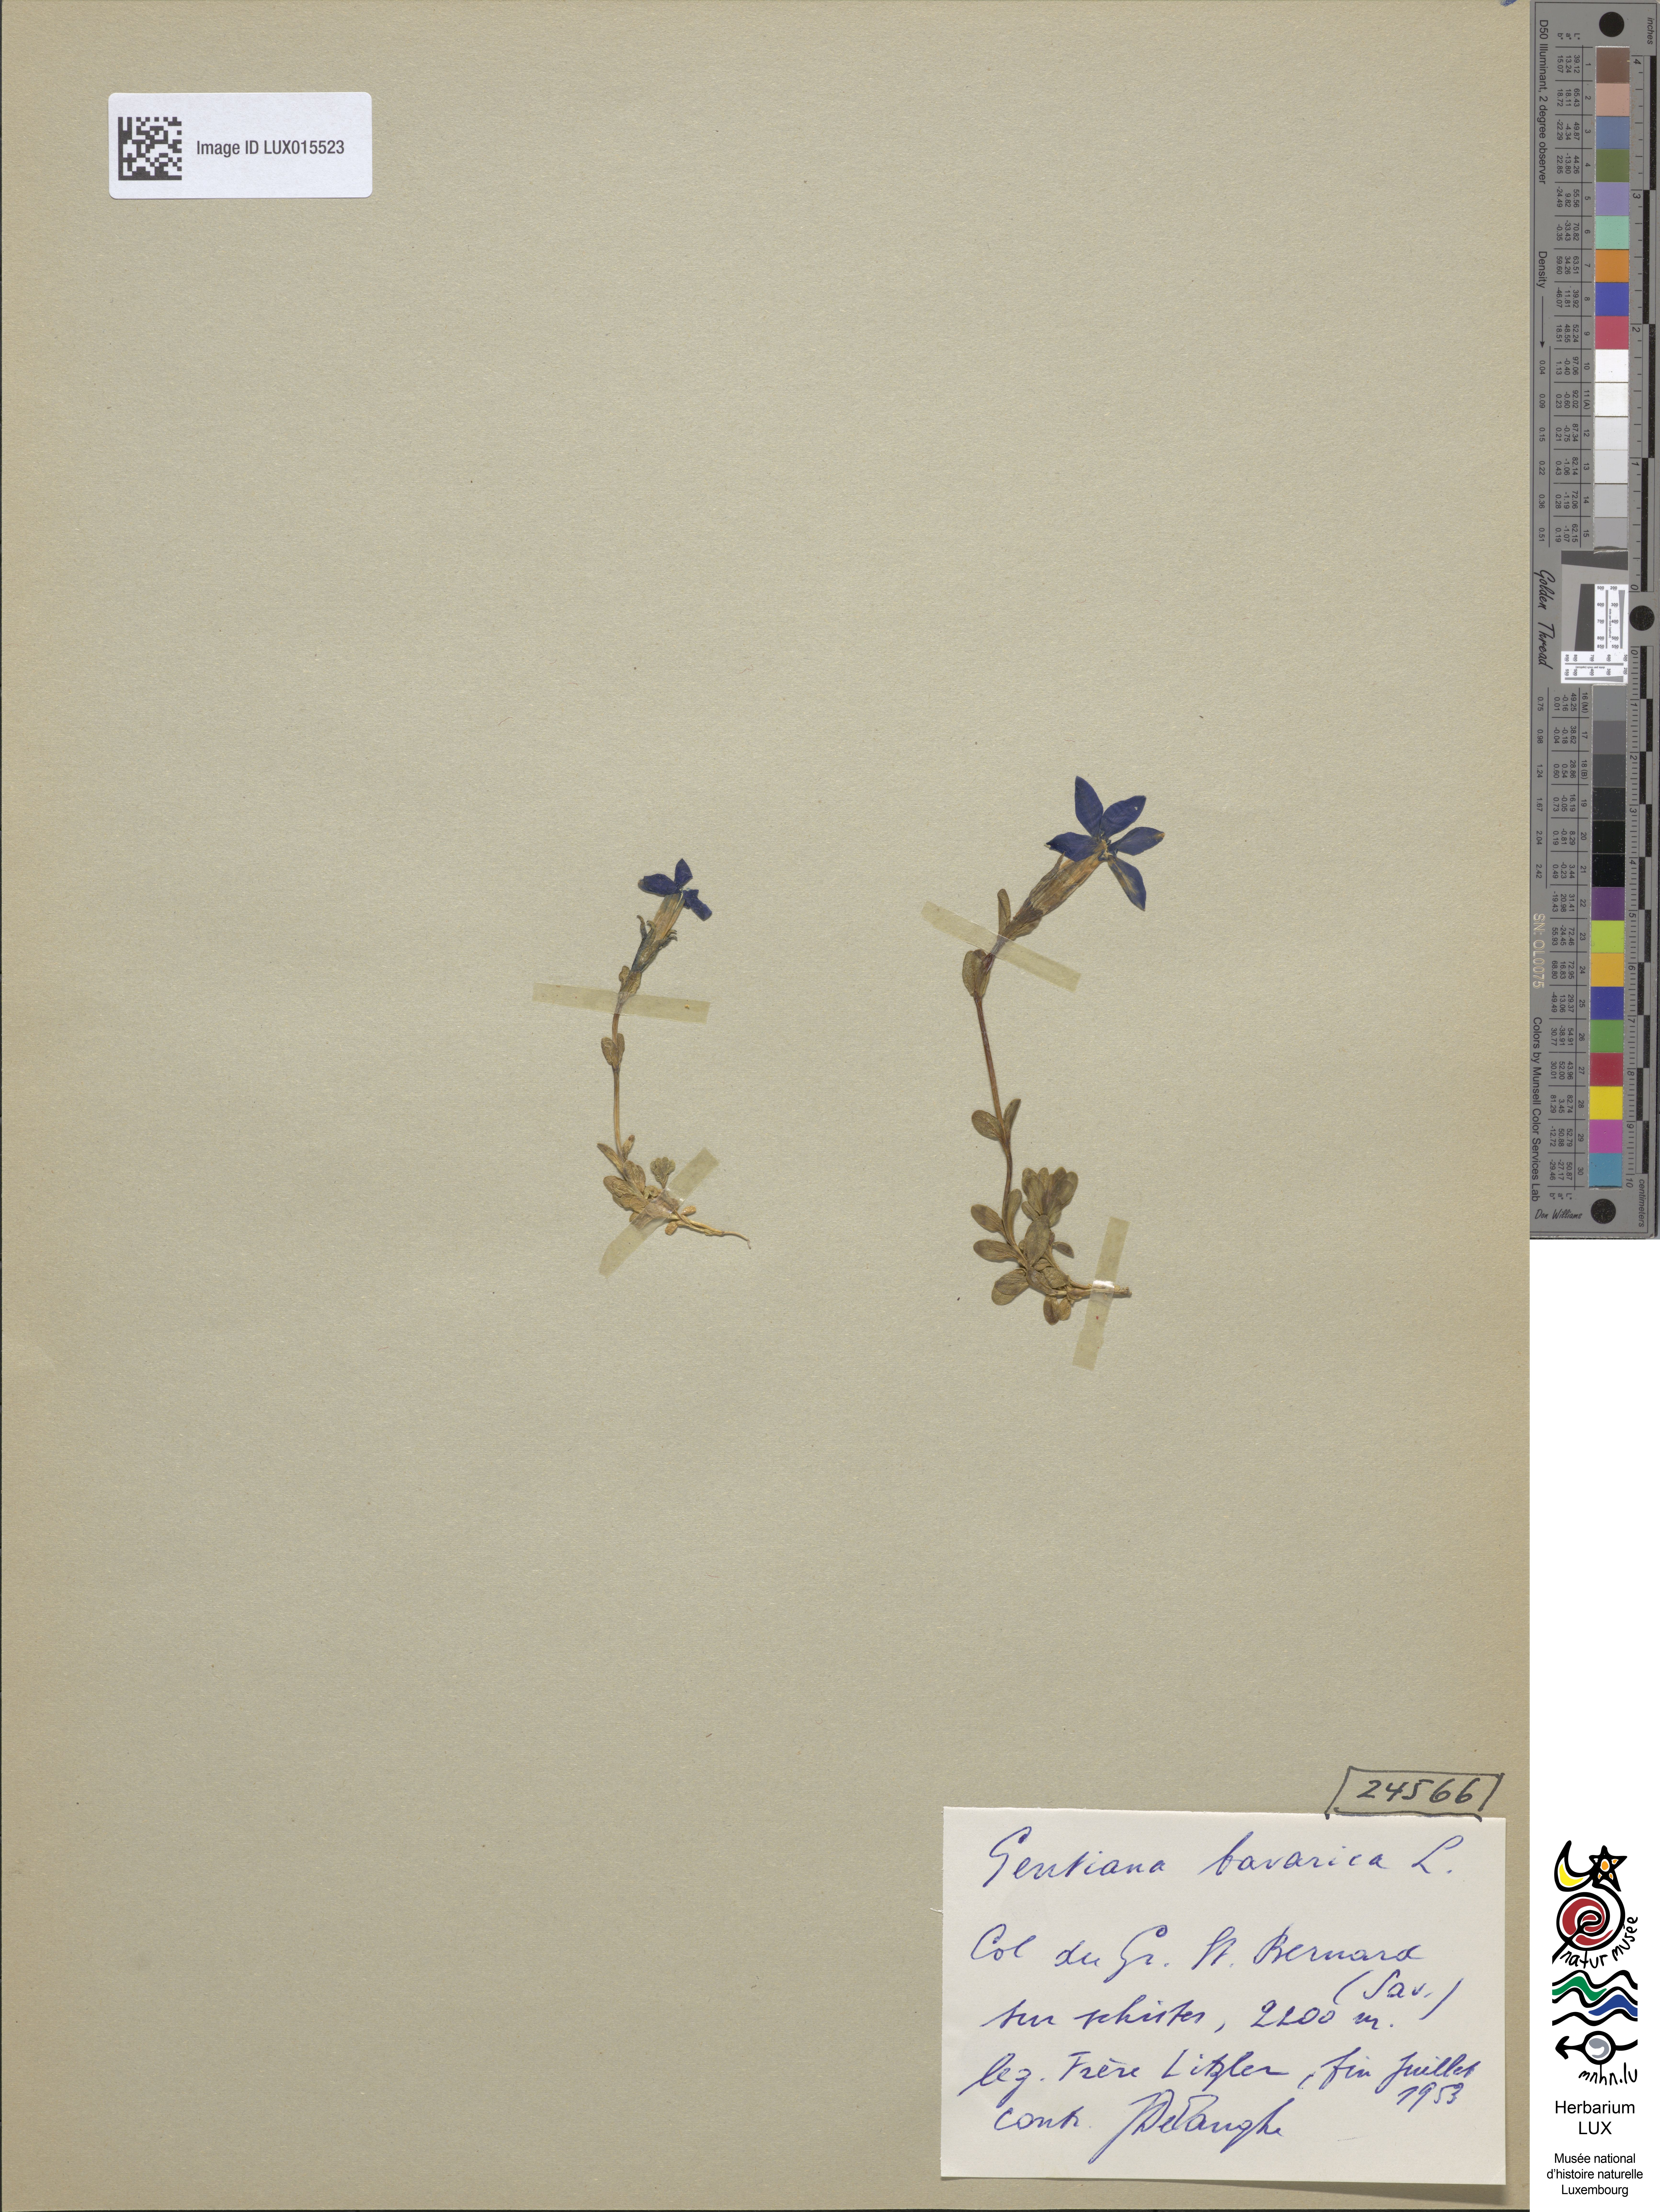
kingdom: Plantae
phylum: Tracheophyta
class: Magnoliopsida
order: Gentianales
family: Gentianaceae
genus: Gentiana
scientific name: Gentiana bavarica
